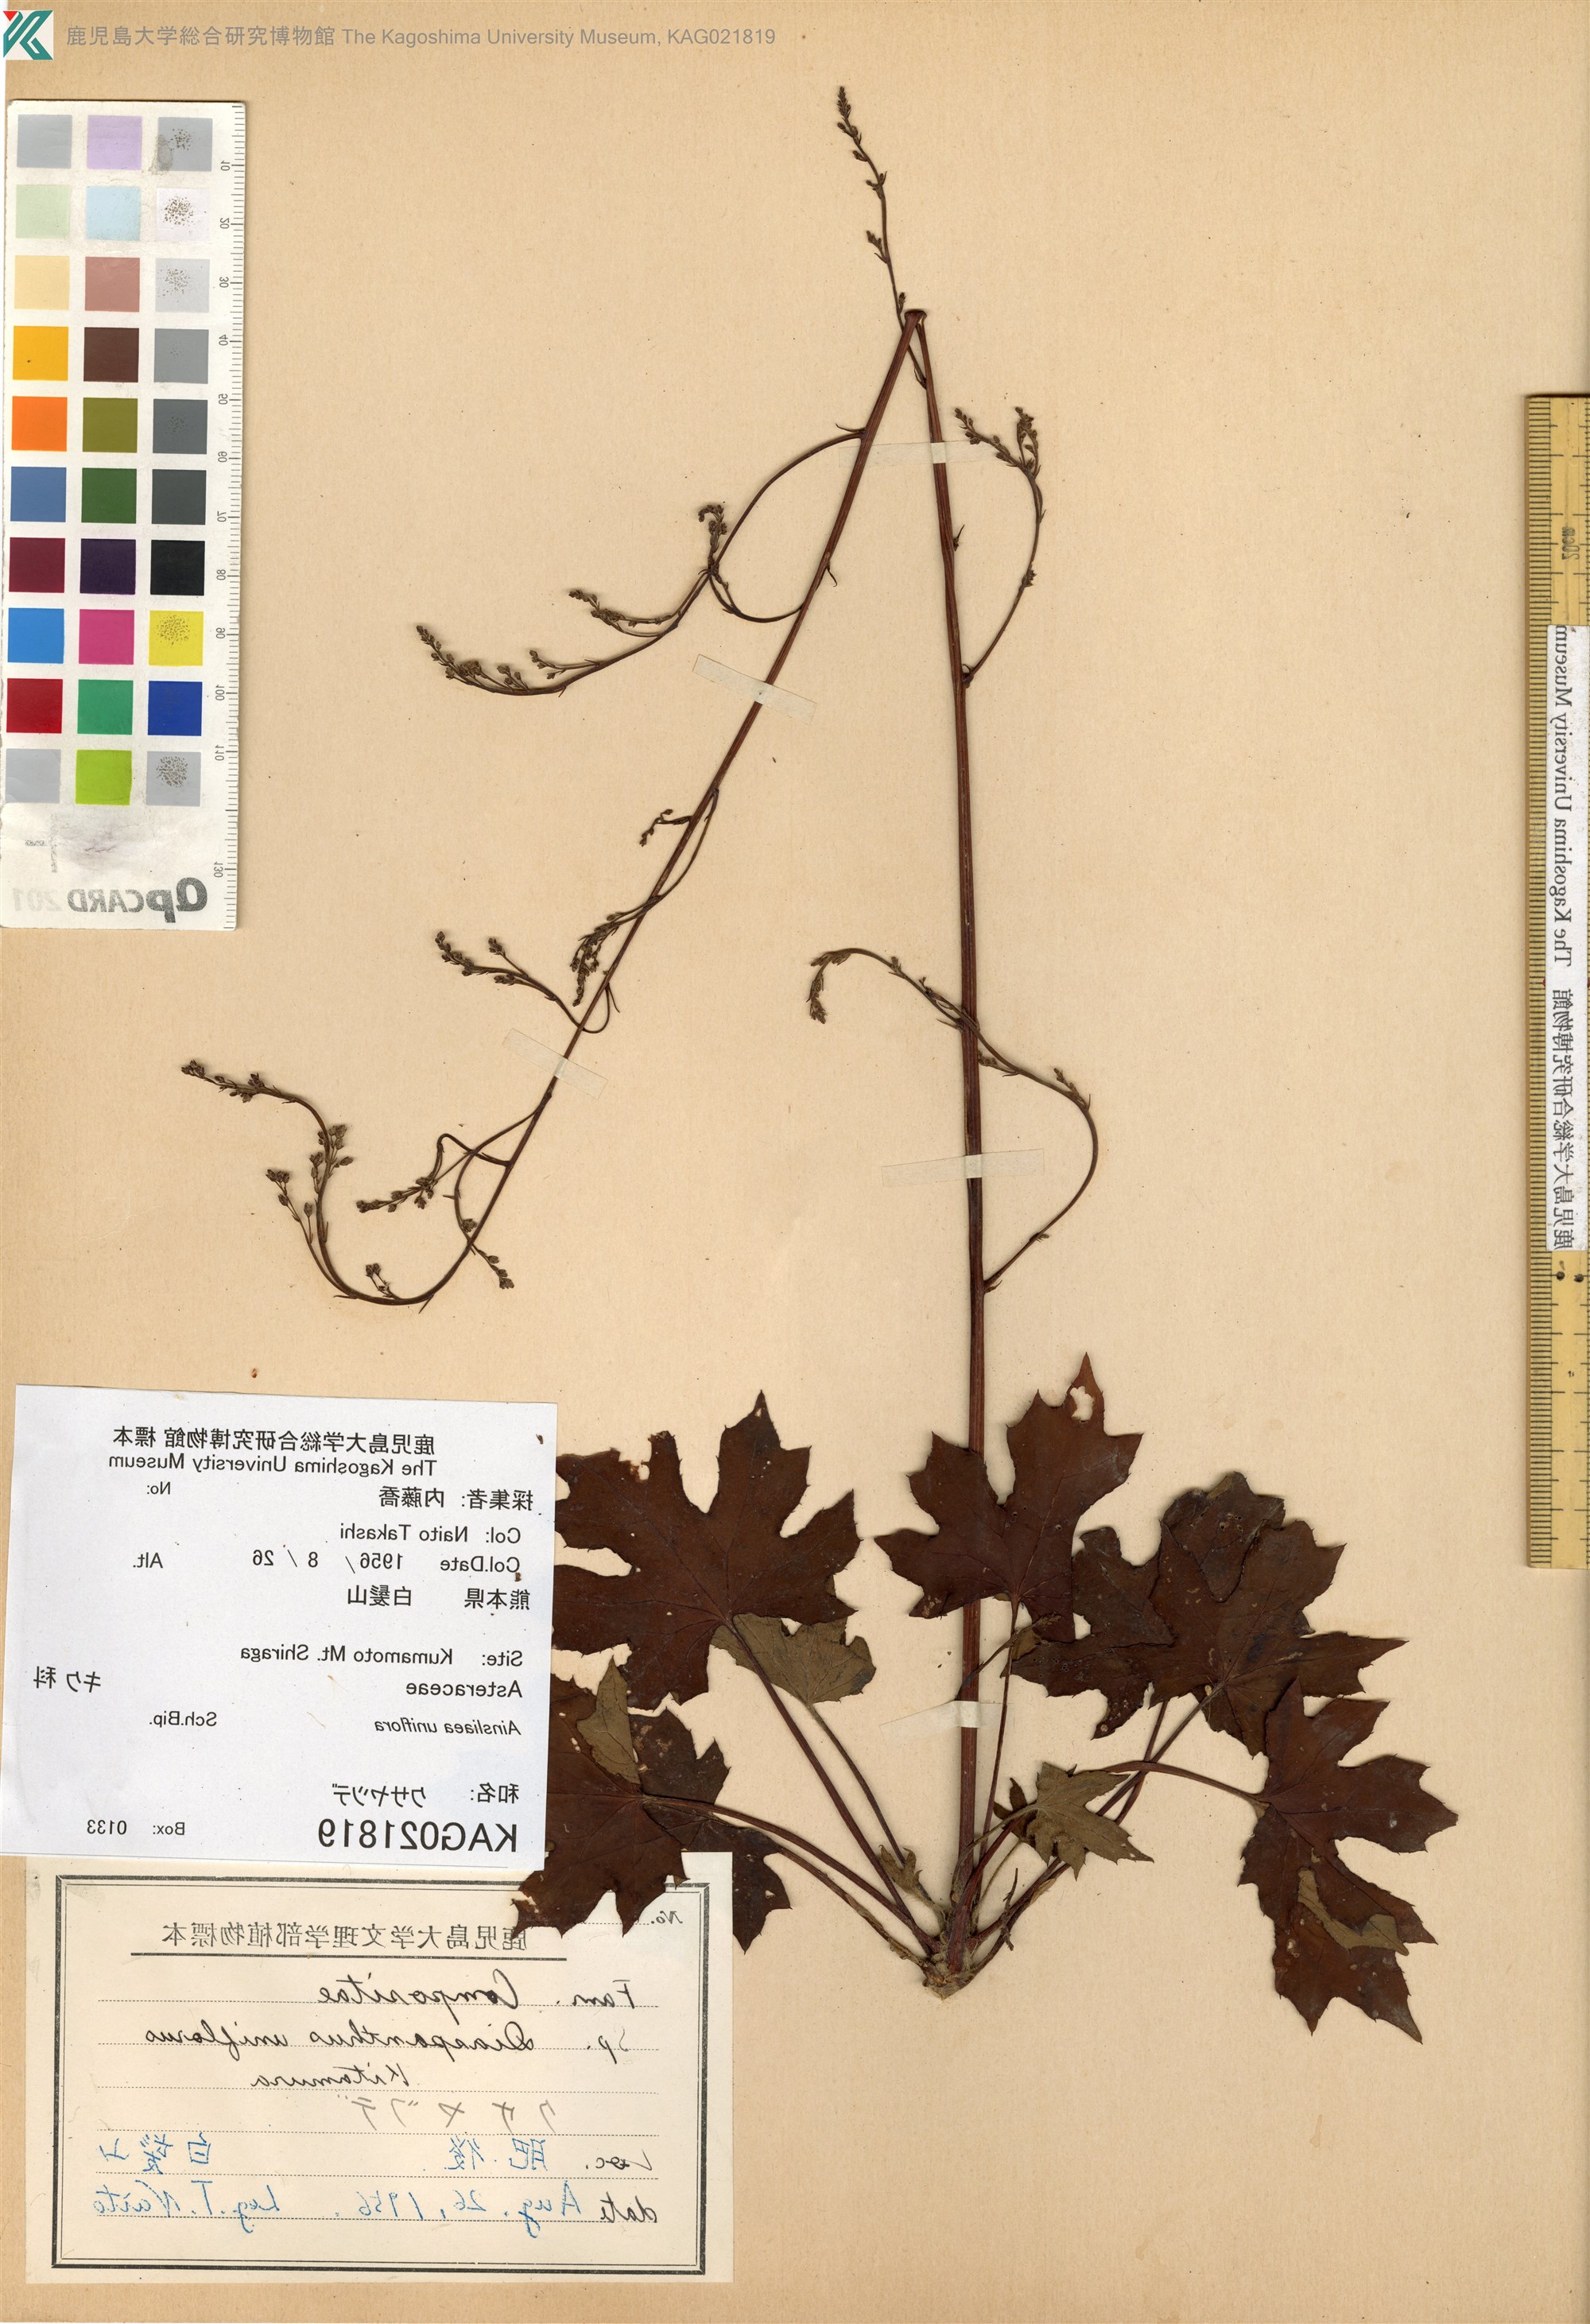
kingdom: Plantae
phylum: Tracheophyta
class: Magnoliopsida
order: Asterales
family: Asteraceae
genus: Ainsliaea
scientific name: Ainsliaea uniflora
